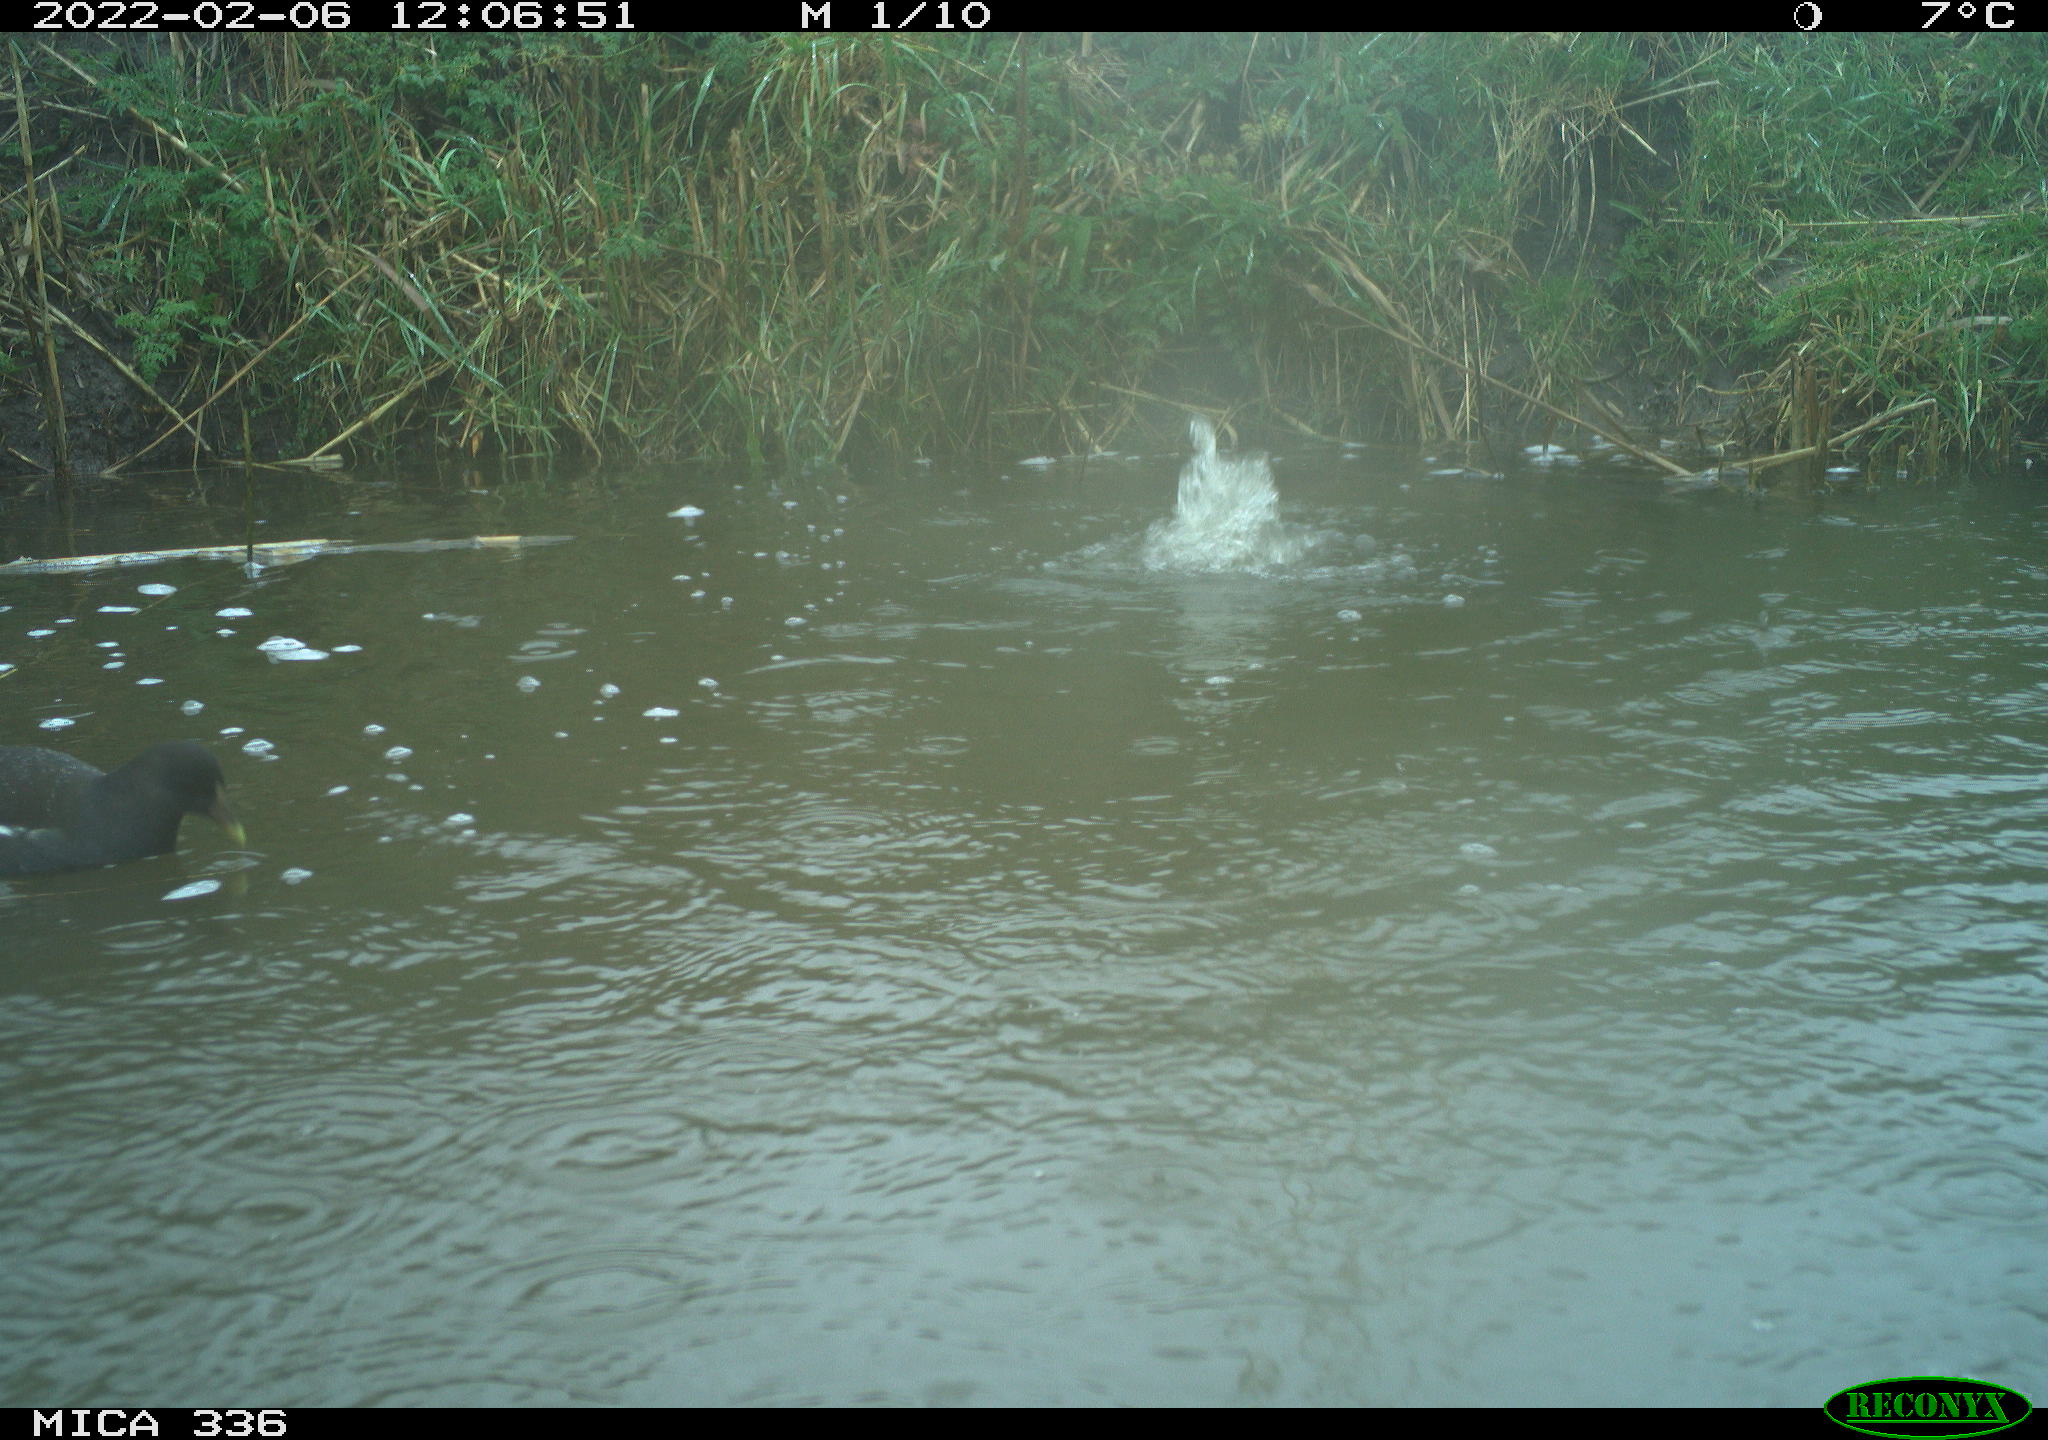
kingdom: Animalia
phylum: Chordata
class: Aves
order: Gruiformes
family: Rallidae
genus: Gallinula
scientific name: Gallinula chloropus
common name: Common moorhen
